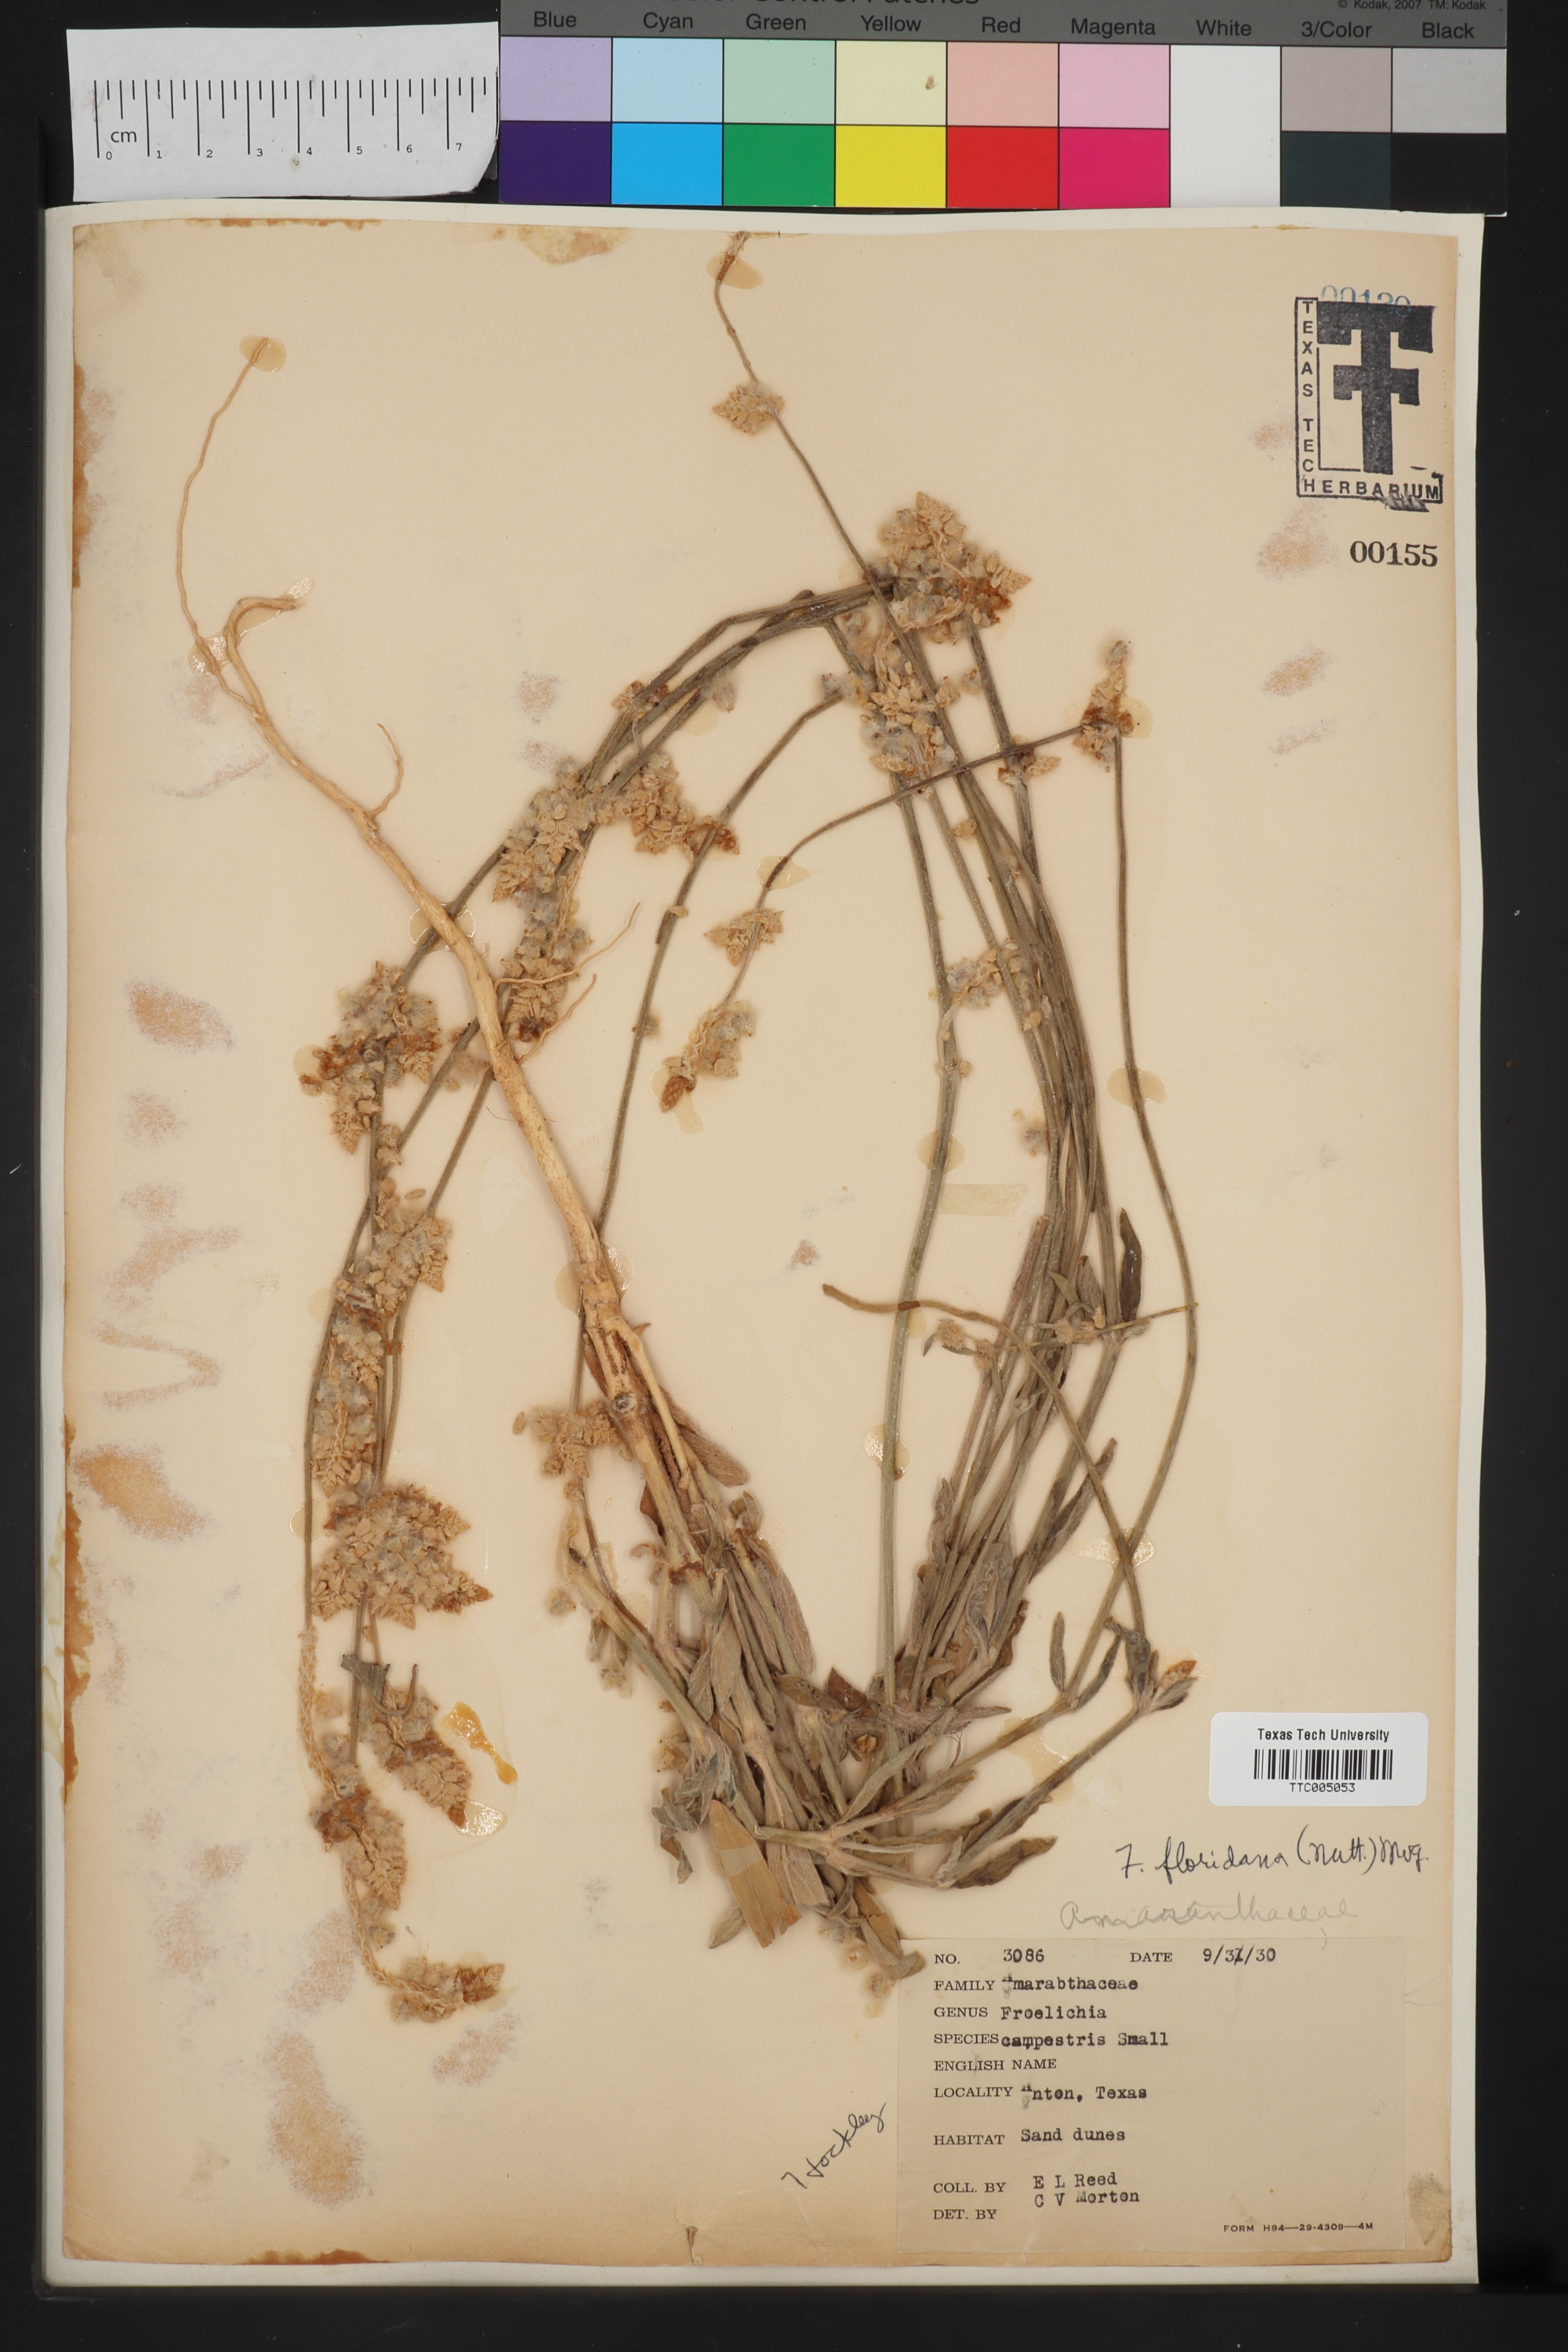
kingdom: Plantae
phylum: Tracheophyta
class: Magnoliopsida
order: Caryophyllales
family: Amaranthaceae
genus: Froelichia
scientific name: Froelichia floridana
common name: Florida snake-cotton
